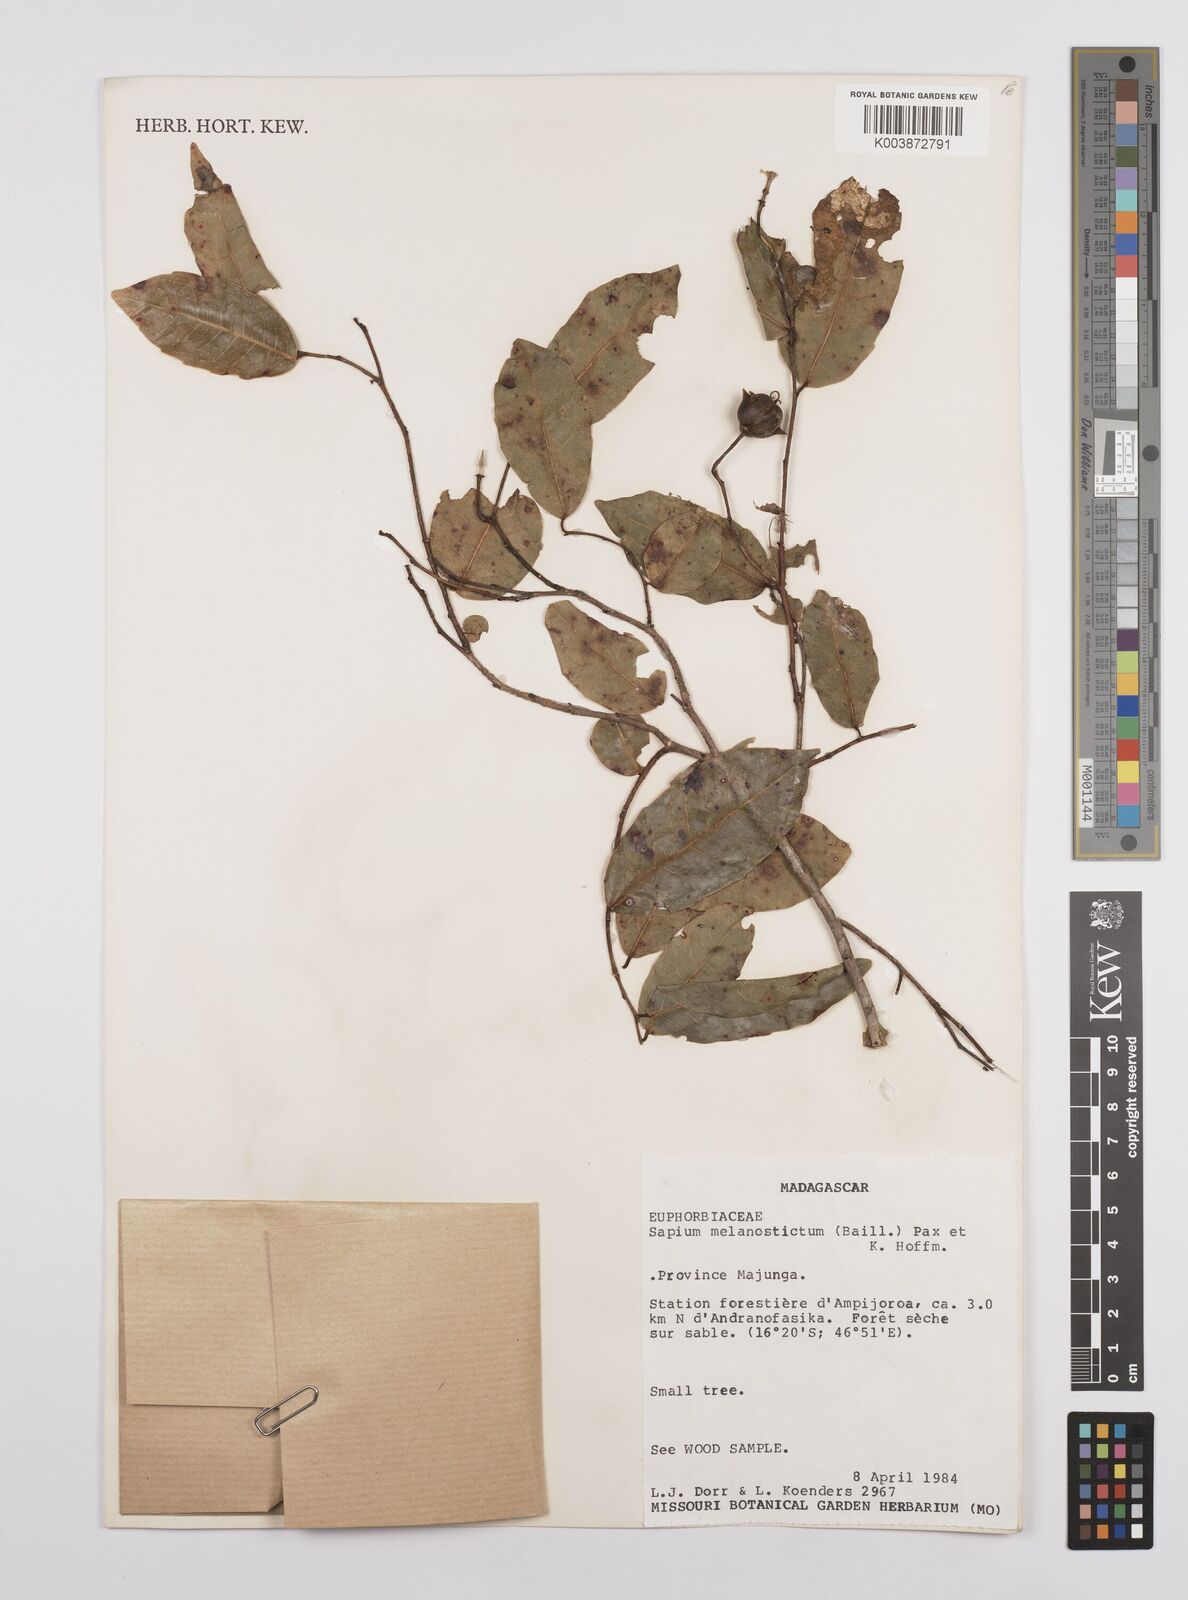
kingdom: Plantae
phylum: Tracheophyta
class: Magnoliopsida
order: Malpighiales
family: Euphorbiaceae
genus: Sclerocroton
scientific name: Sclerocroton melanostictus
